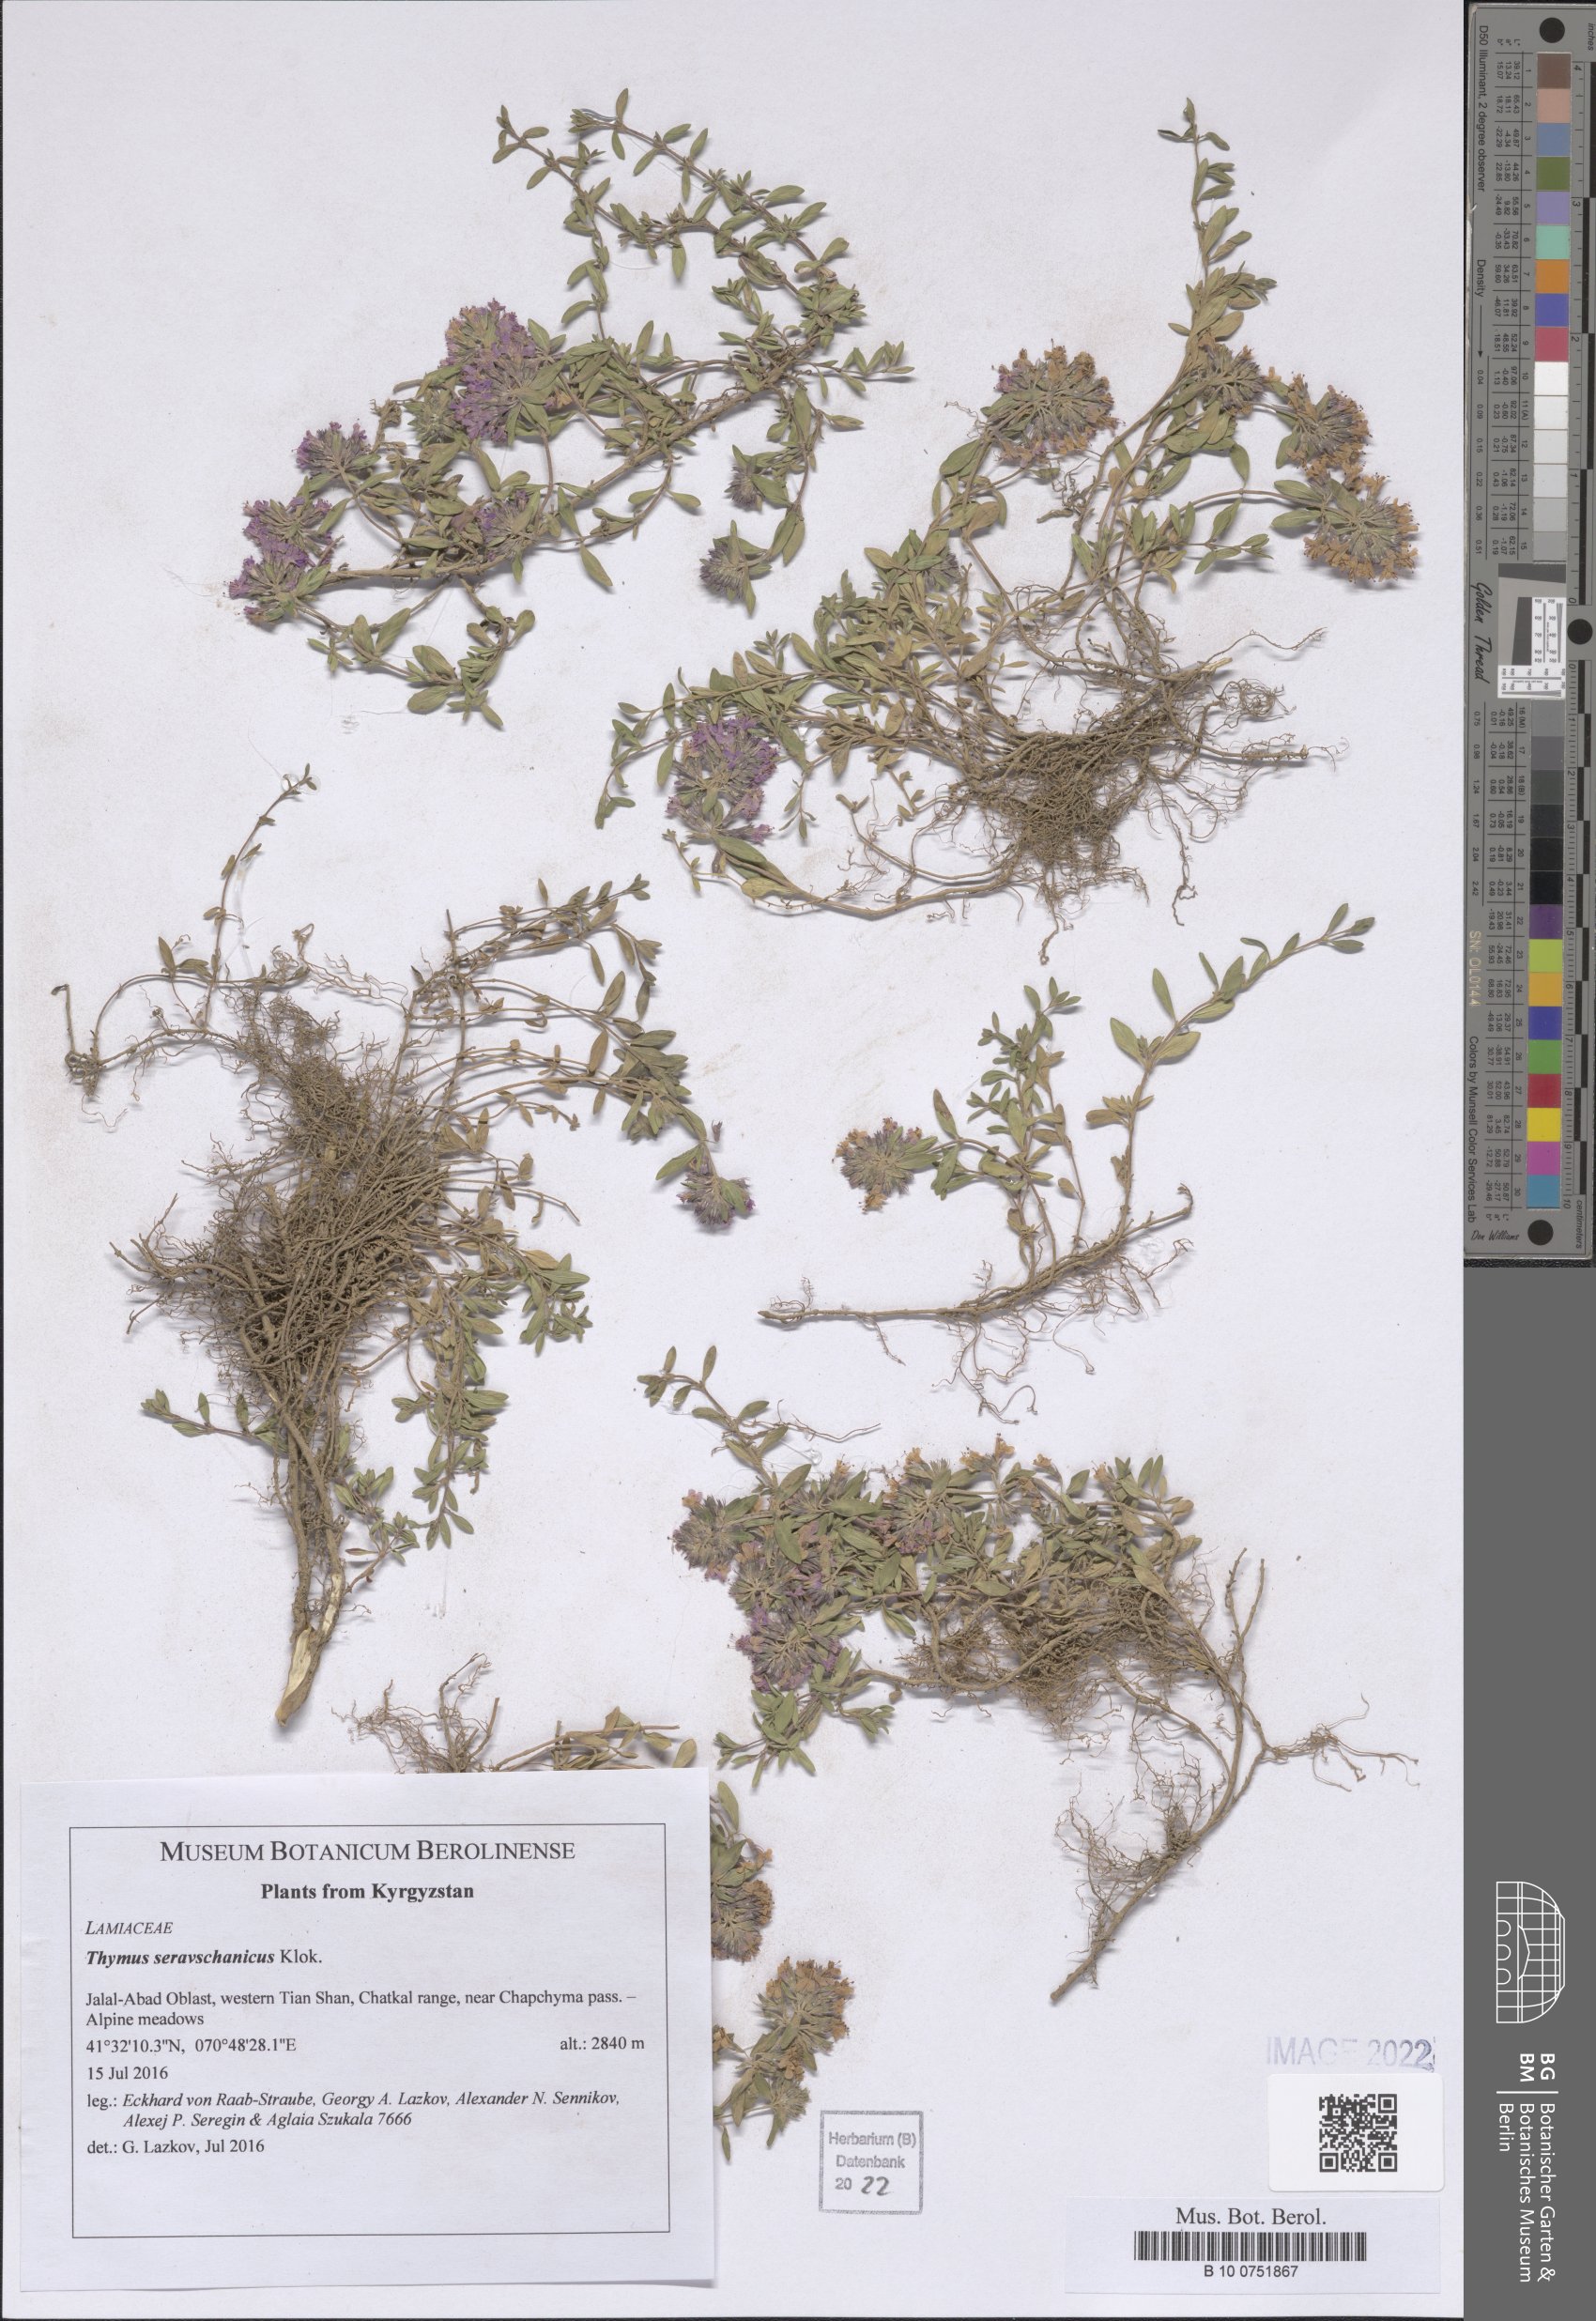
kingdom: Plantae
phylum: Tracheophyta
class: Magnoliopsida
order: Lamiales
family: Lamiaceae
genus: Thymus
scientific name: Thymus seravschanicus
